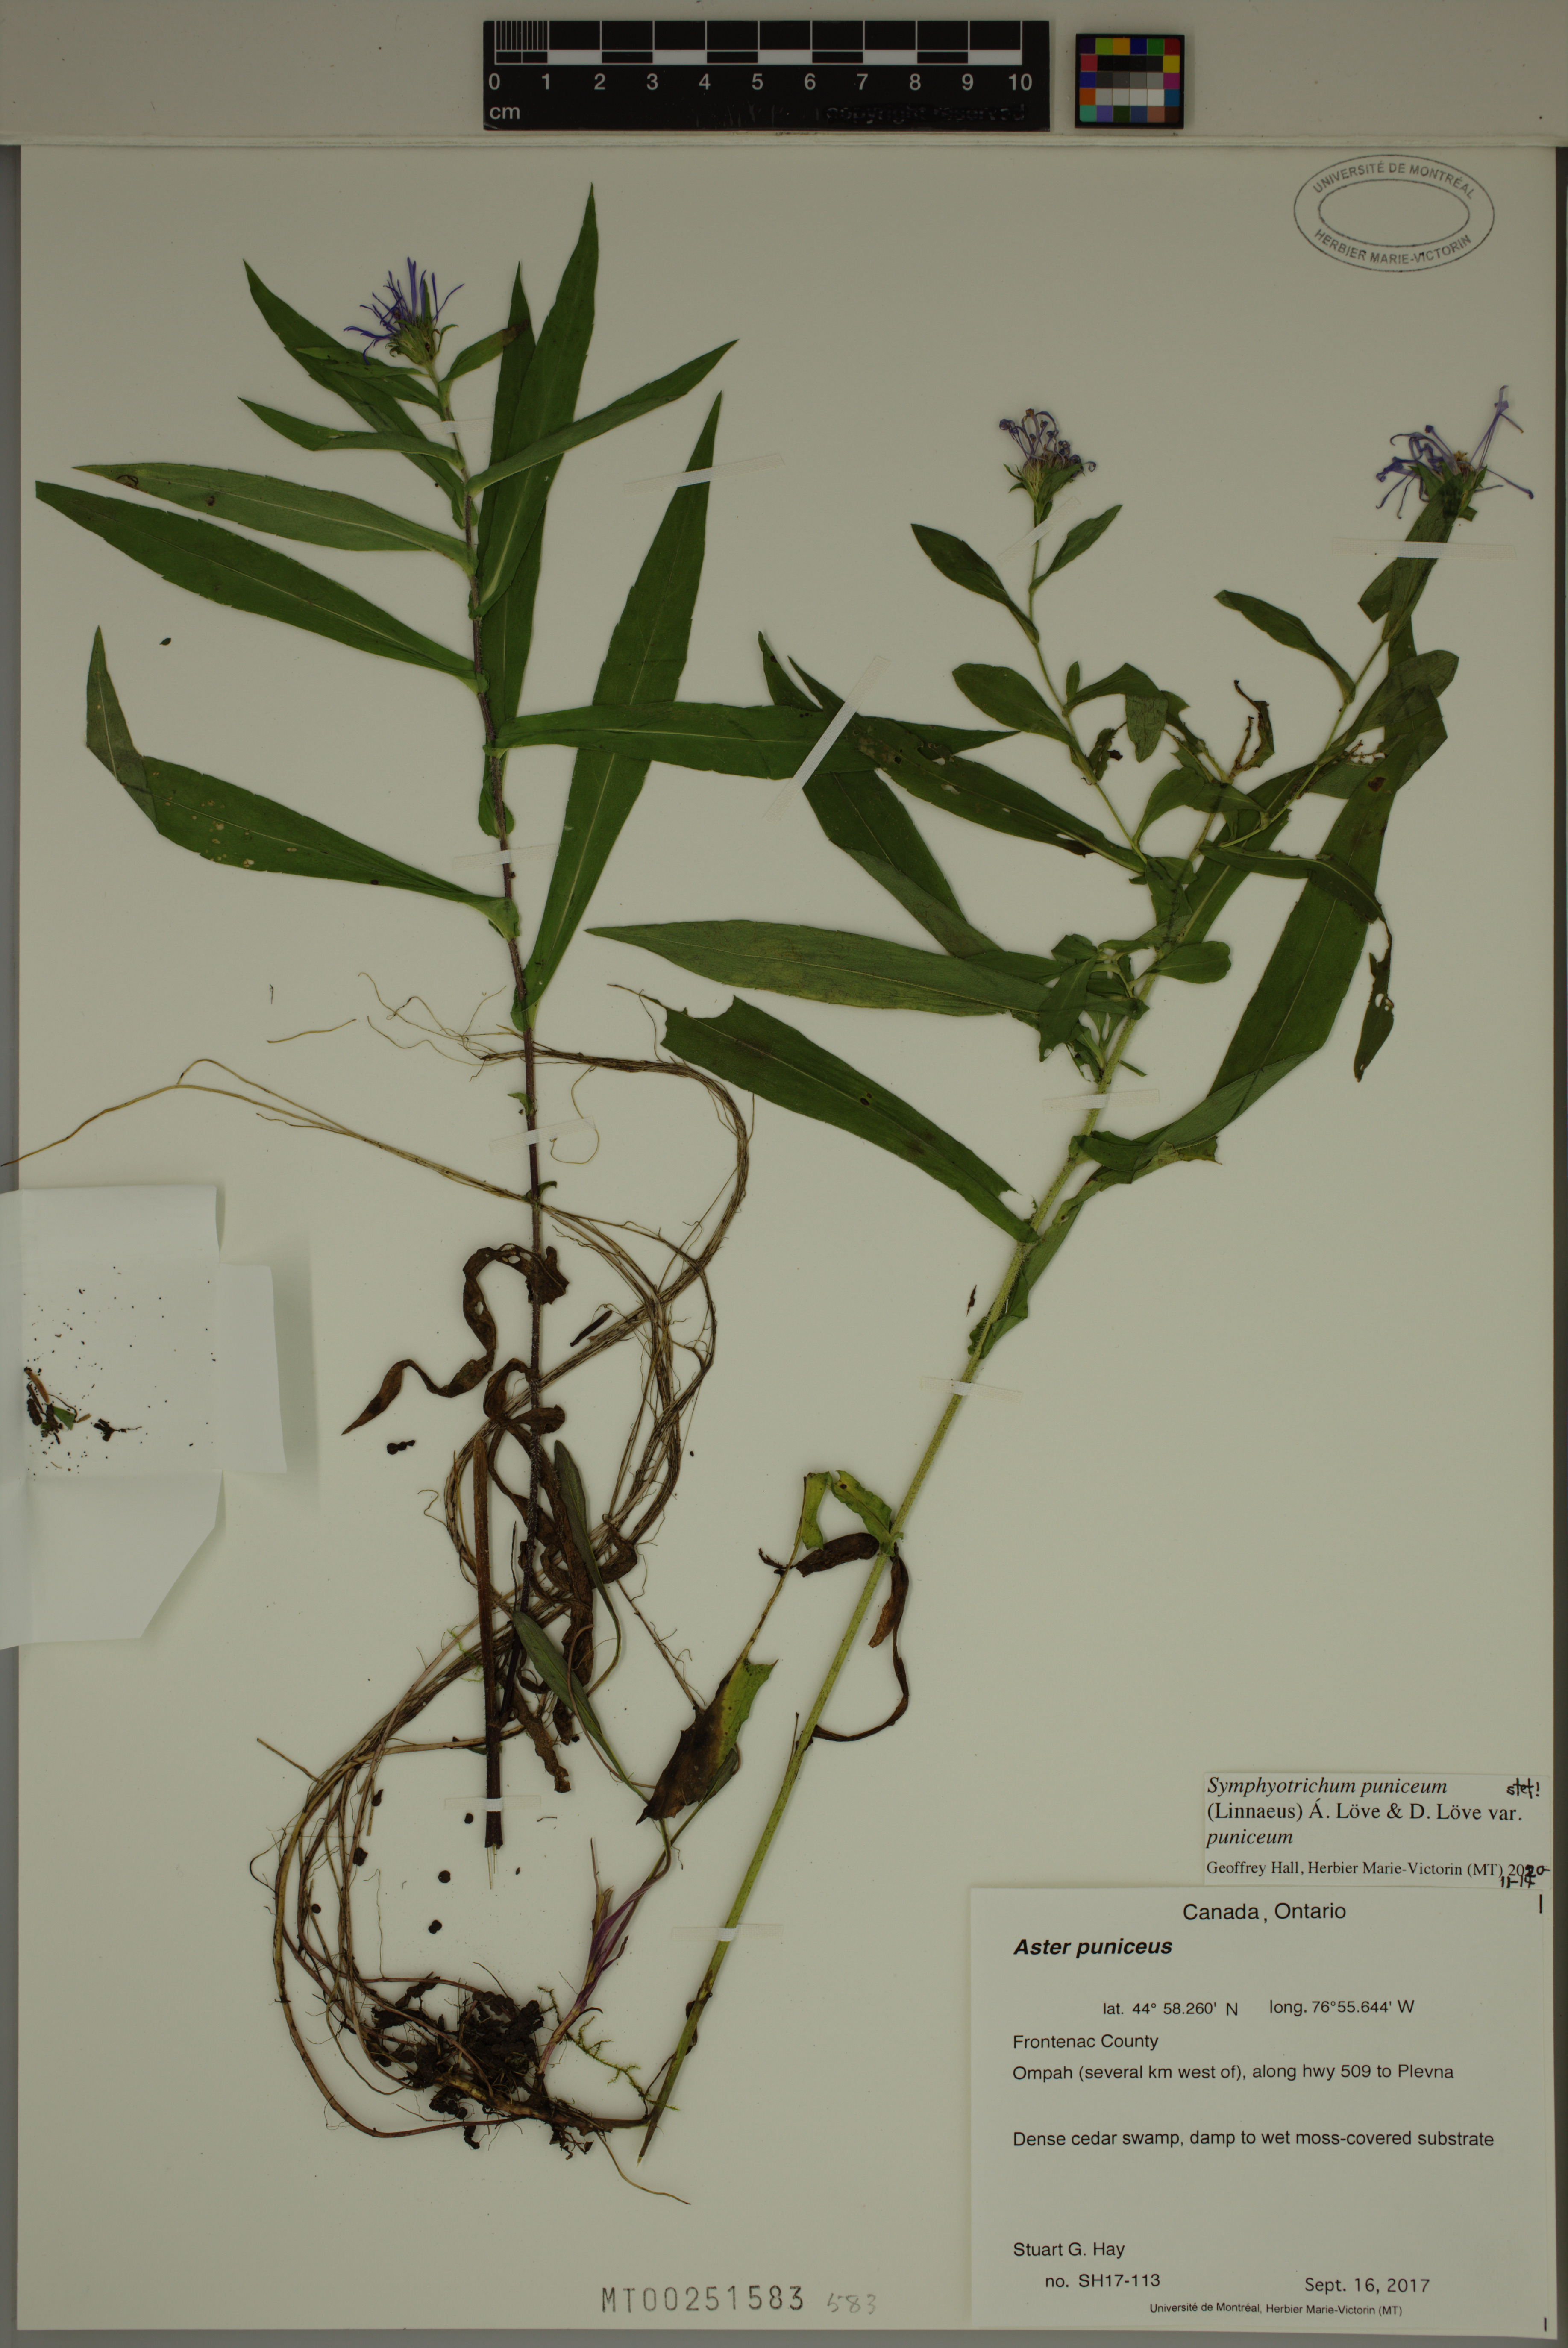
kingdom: Plantae
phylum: Tracheophyta
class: Magnoliopsida
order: Asterales
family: Asteraceae
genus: Symphyotrichum
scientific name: Symphyotrichum puniceum
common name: Bog aster
